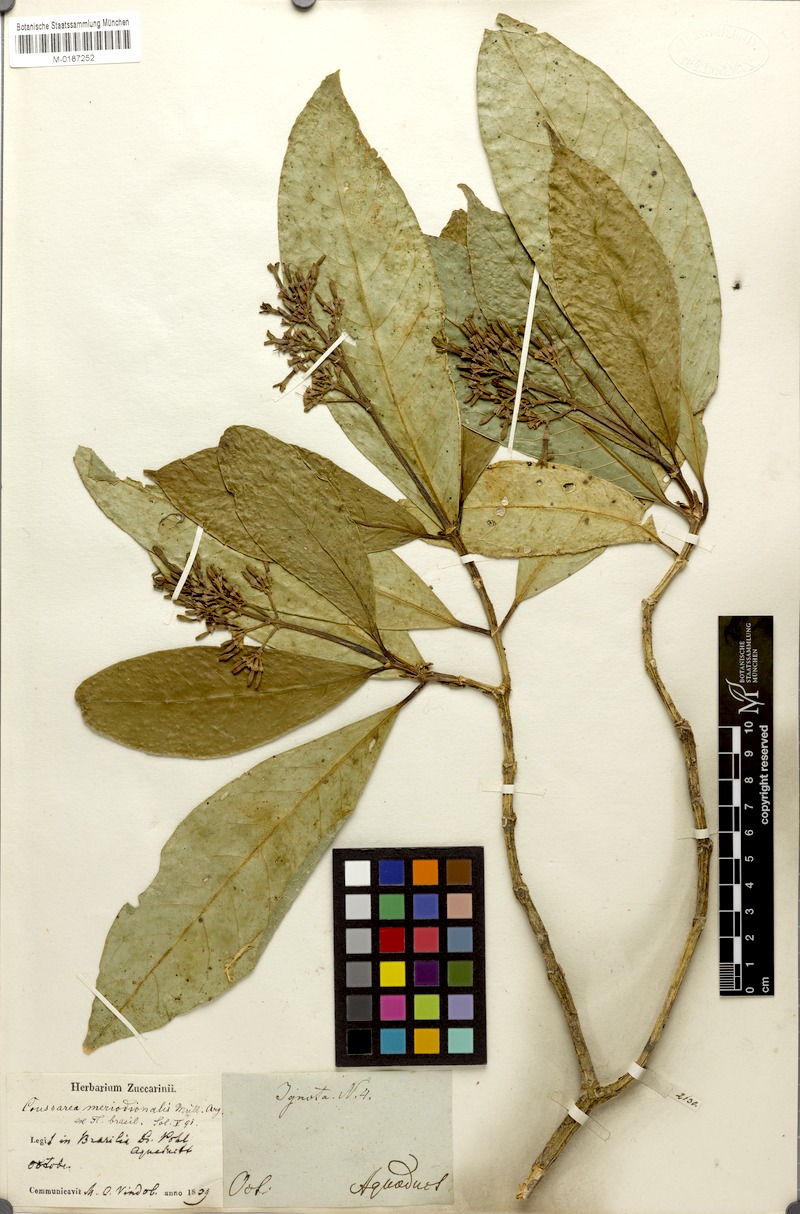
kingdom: Plantae
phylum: Tracheophyta
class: Magnoliopsida
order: Gentianales
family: Rubiaceae
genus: Coussarea
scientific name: Coussarea meridionalis
